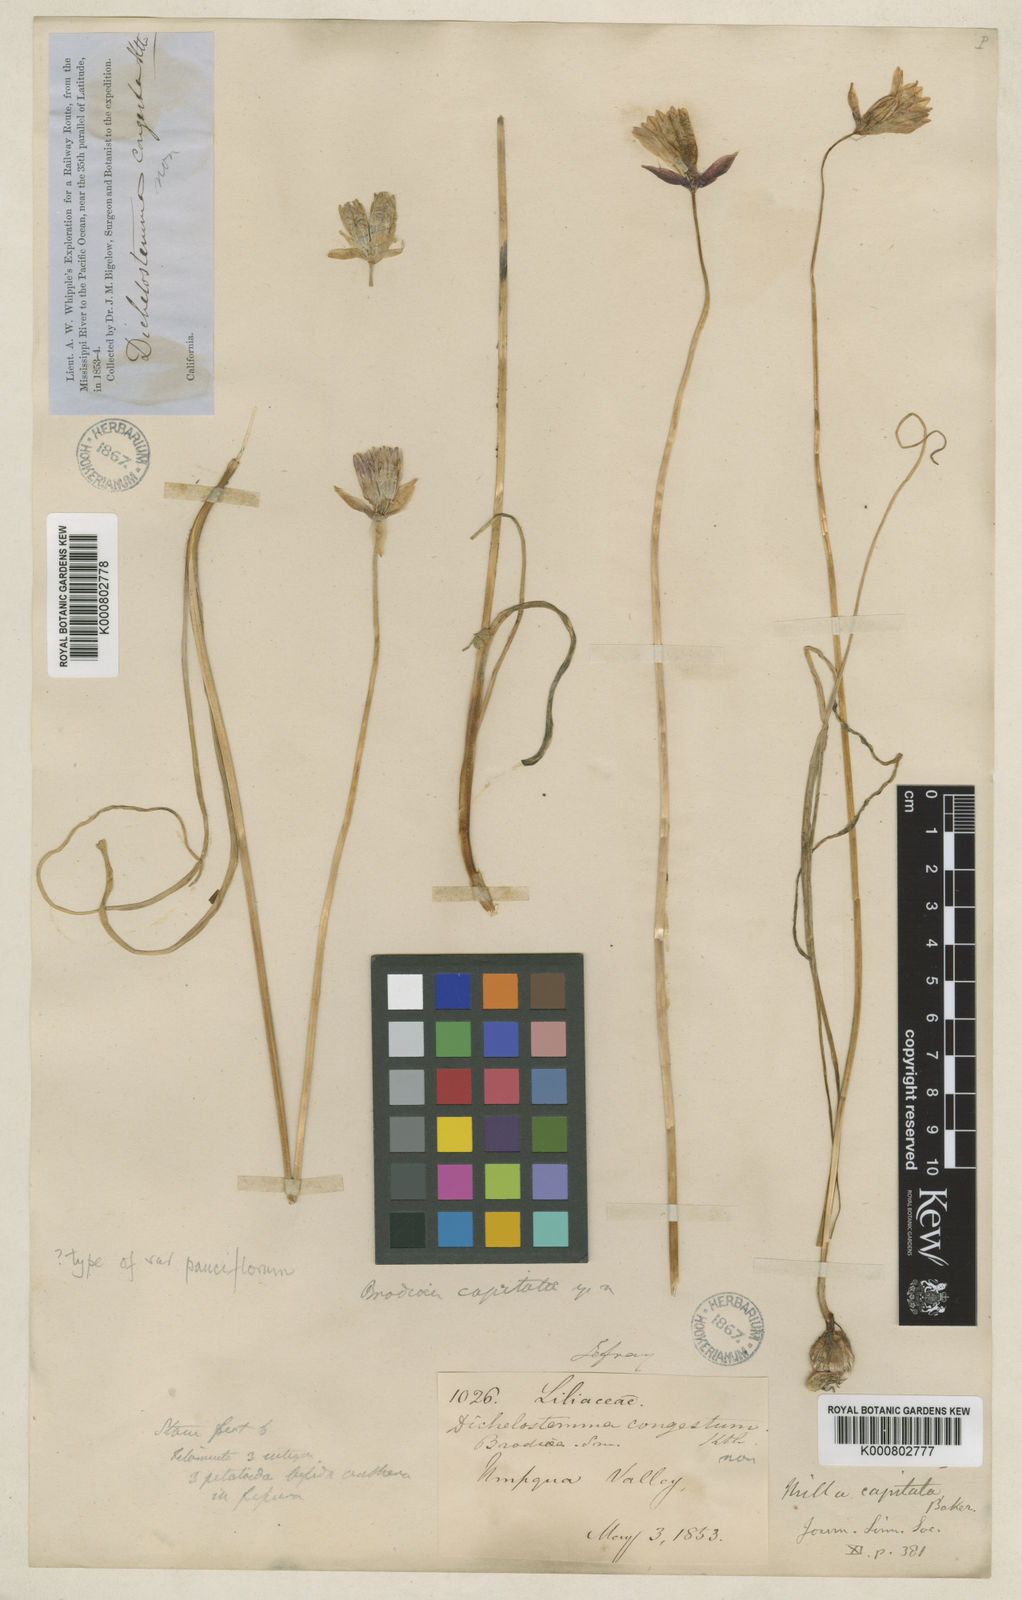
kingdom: Plantae
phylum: Tracheophyta
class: Liliopsida
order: Asparagales
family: Asparagaceae
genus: Dichelostemma
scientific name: Dichelostemma congestum
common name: Fork-tooth ookow
